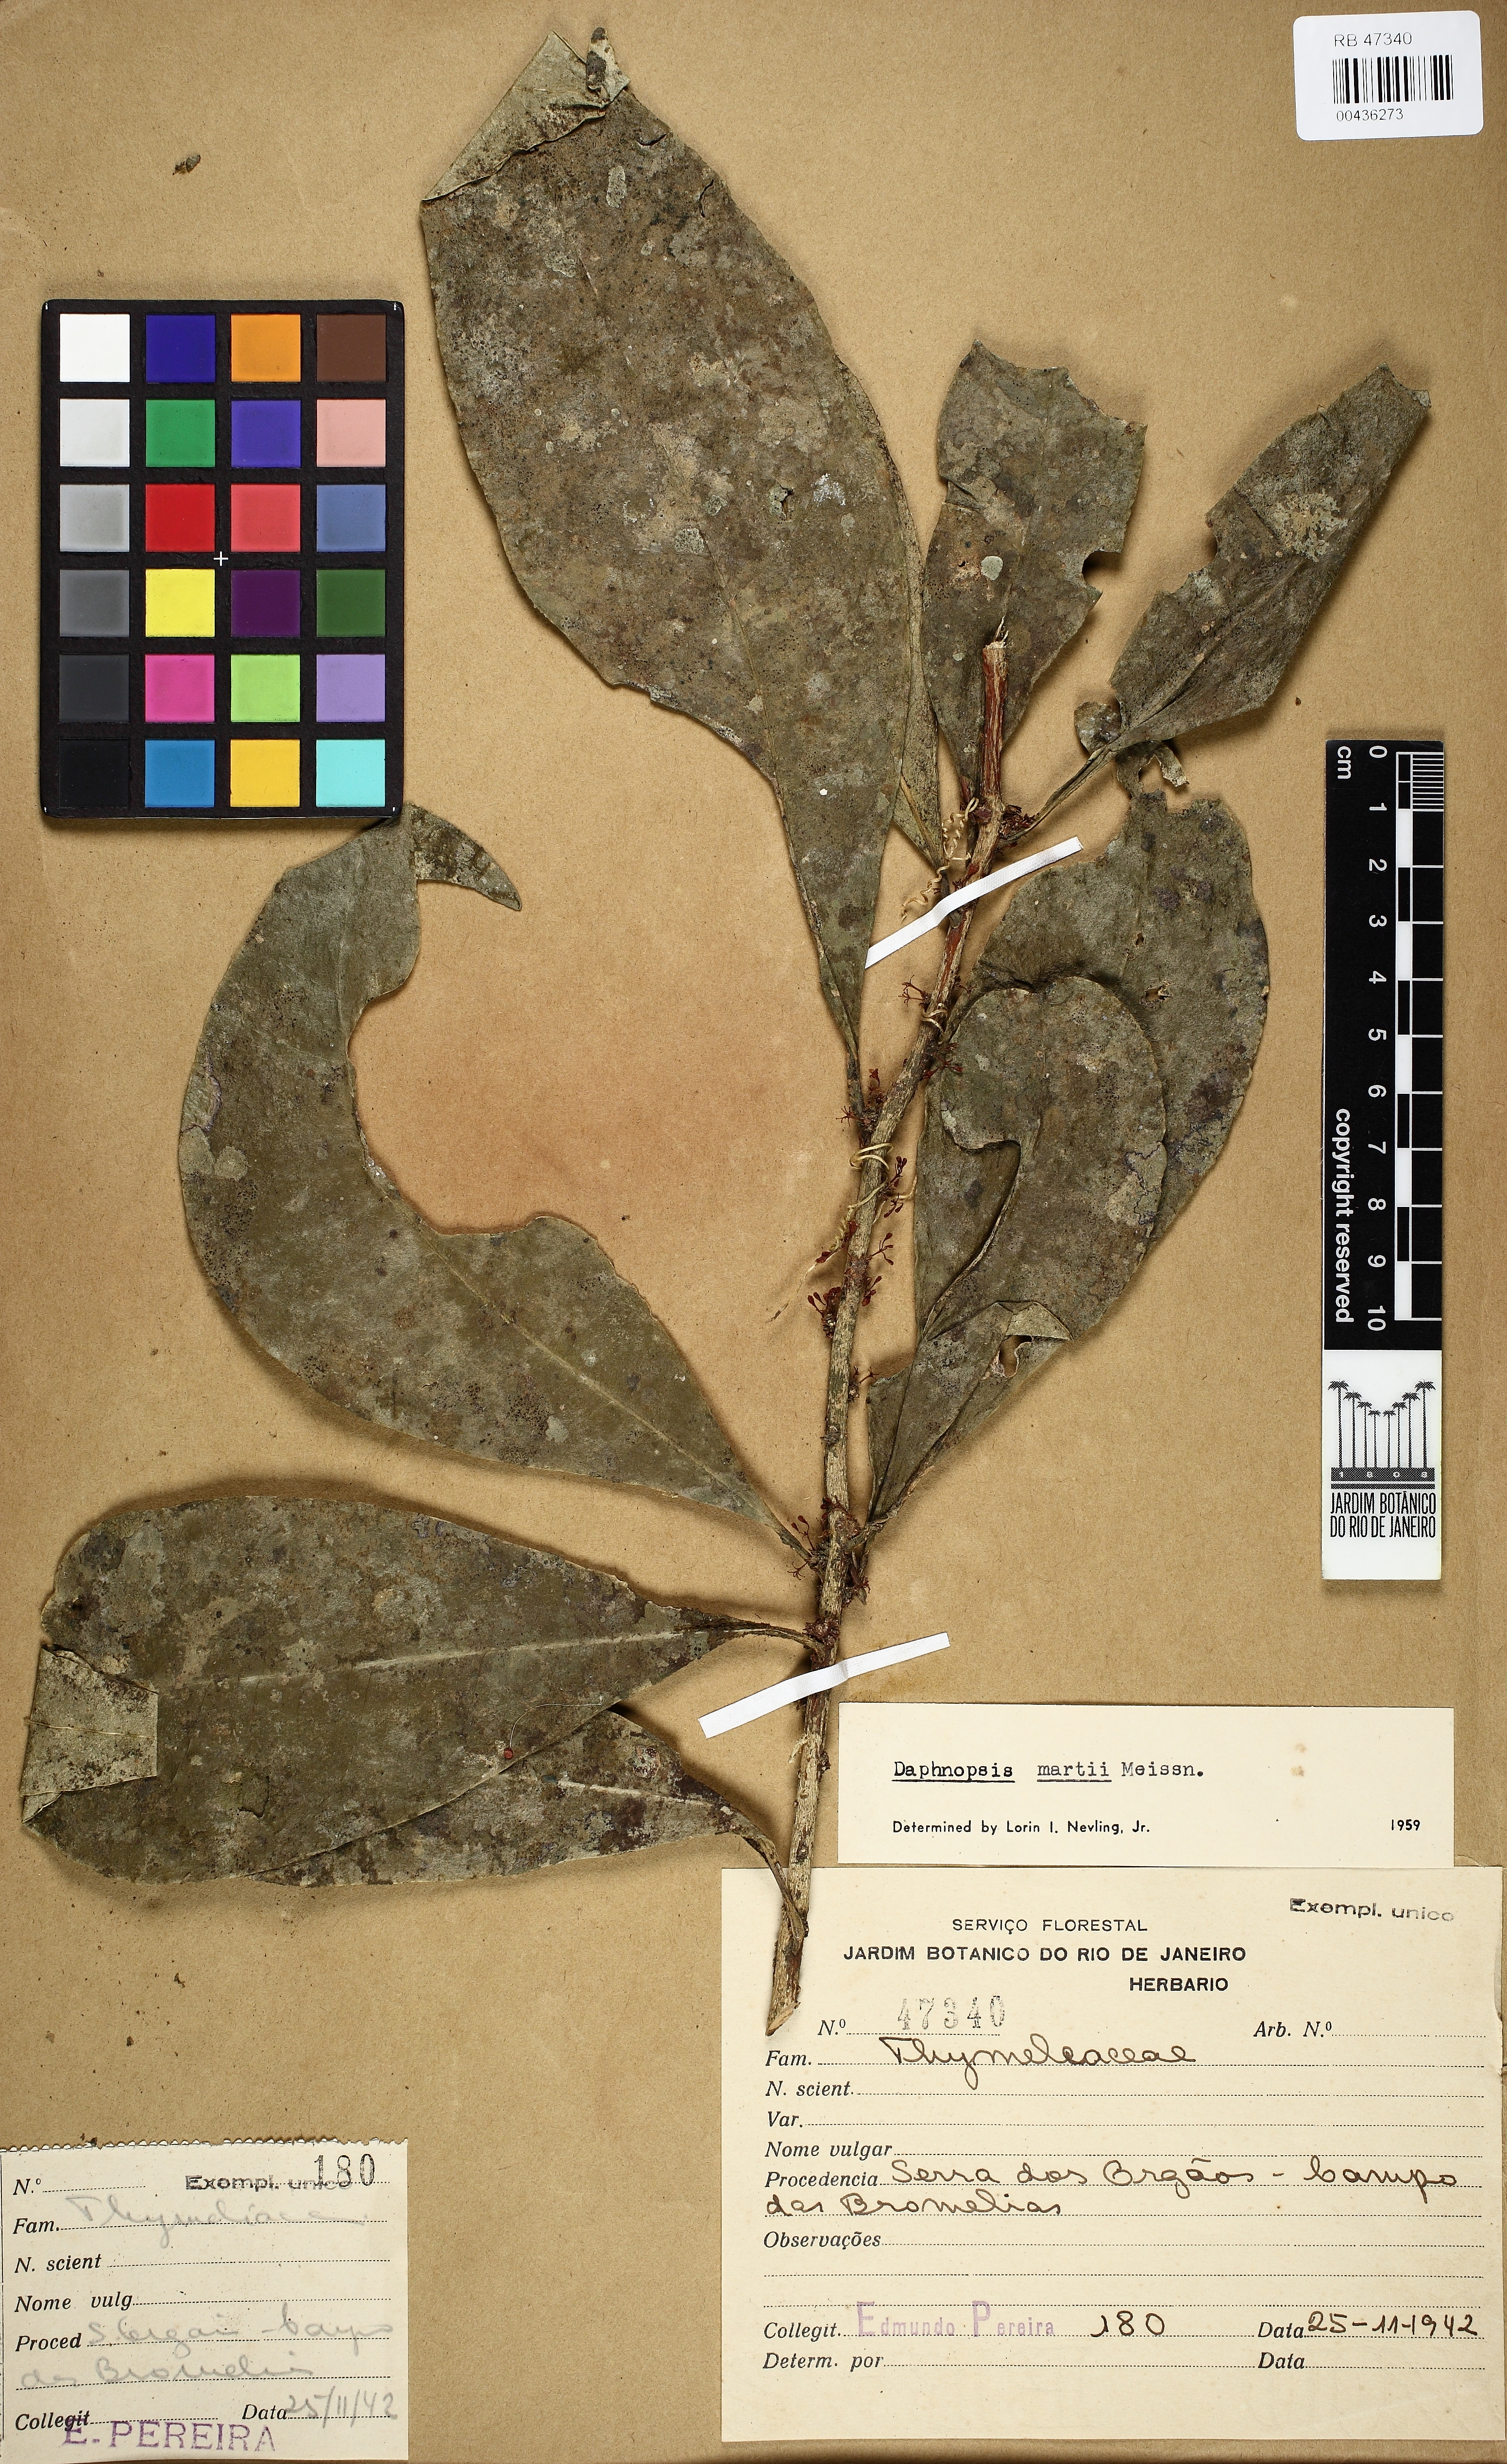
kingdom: Plantae
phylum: Tracheophyta
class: Magnoliopsida
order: Malvales
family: Thymelaeaceae
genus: Daphnopsis
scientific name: Daphnopsis
